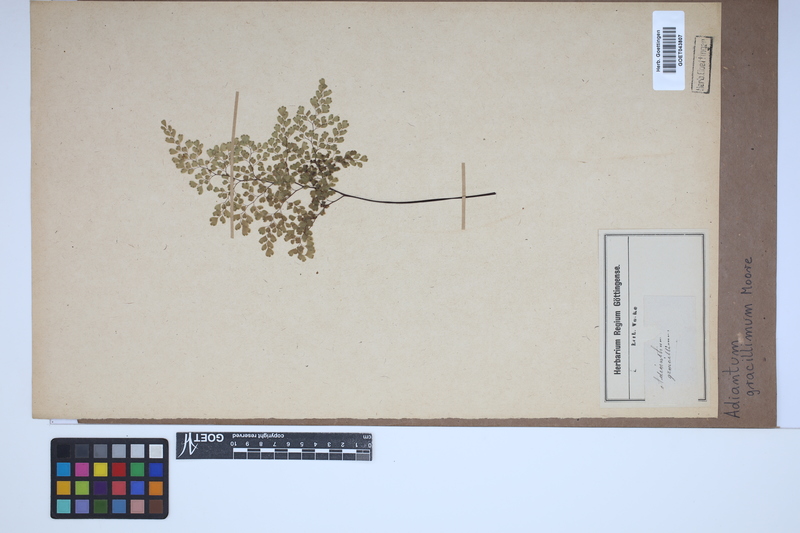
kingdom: Plantae
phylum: Tracheophyta
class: Polypodiopsida
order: Polypodiales
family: Pteridaceae
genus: Adiantum
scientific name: Adiantum gracillimum
